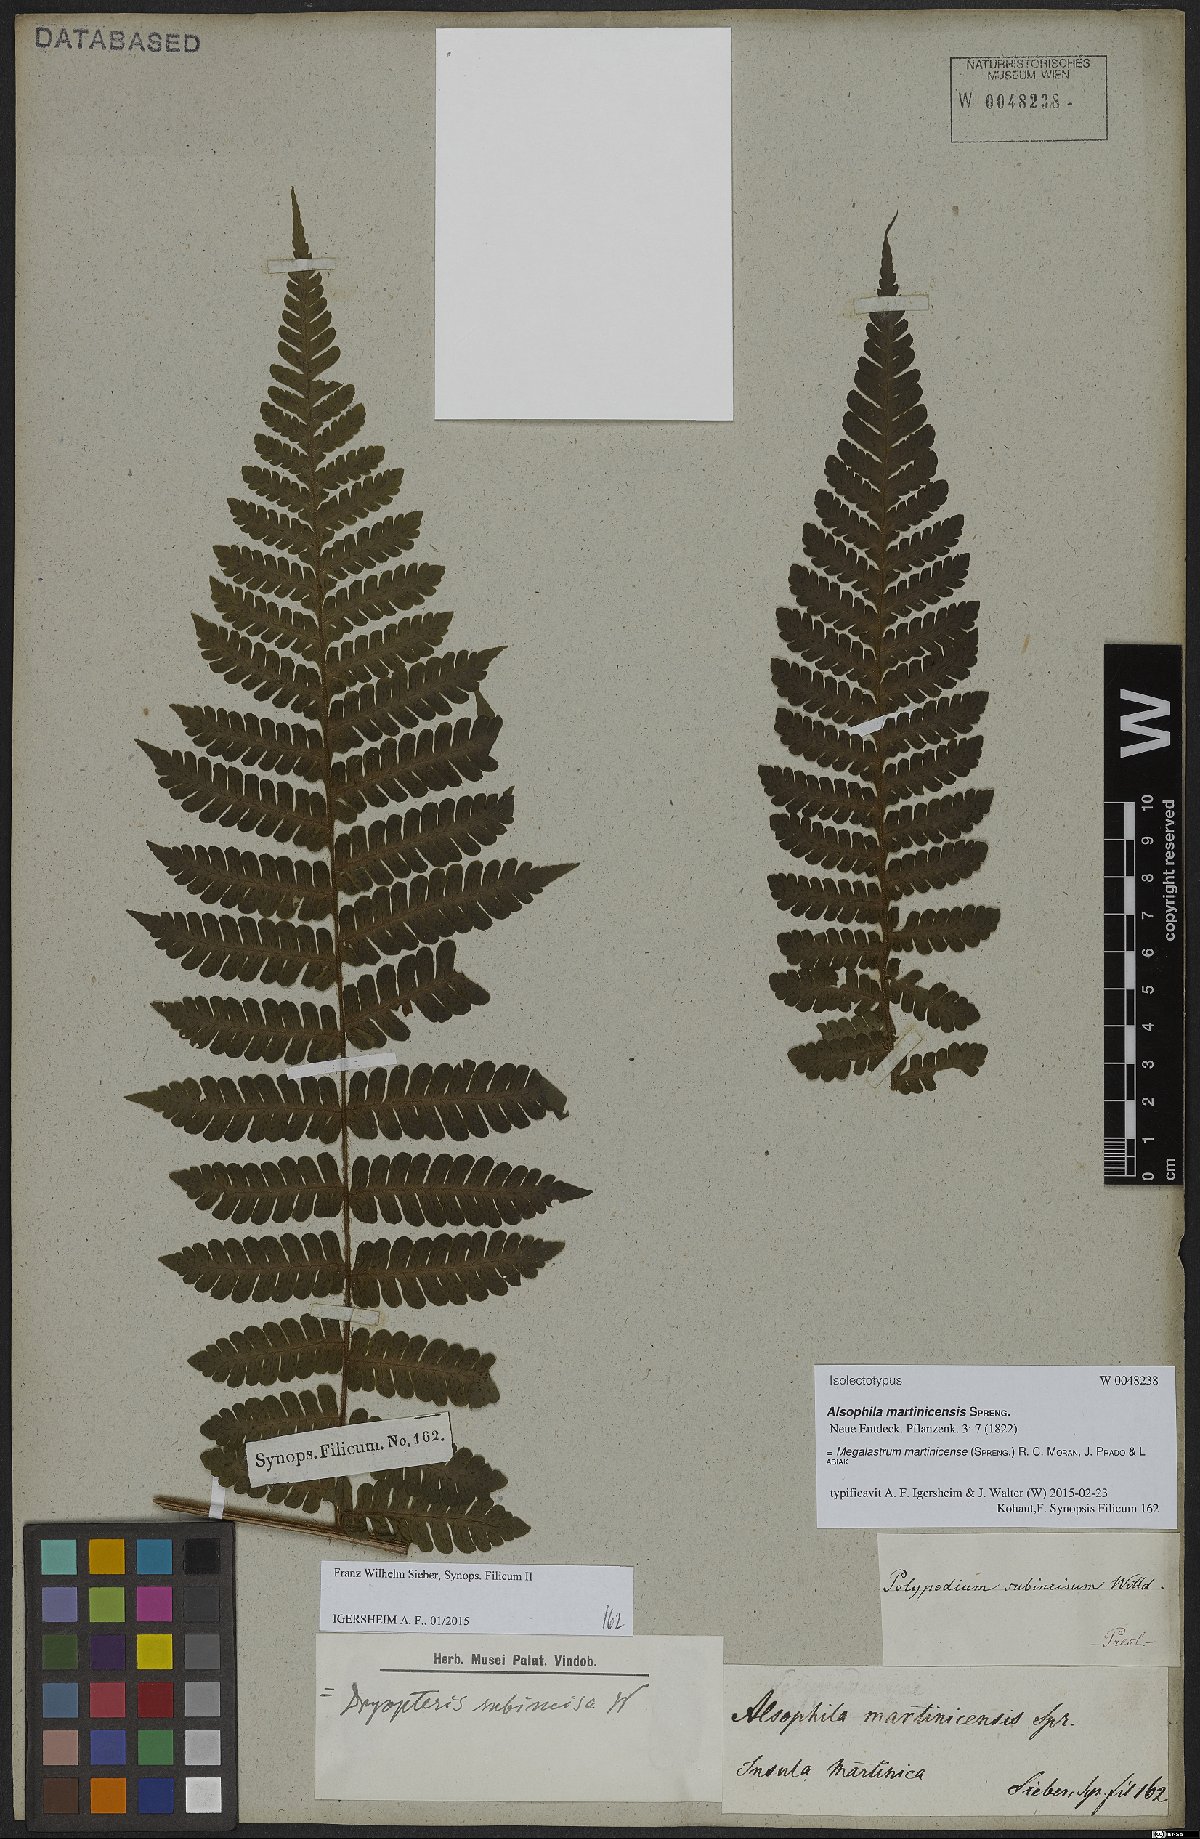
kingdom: Plantae
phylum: Tracheophyta
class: Polypodiopsida
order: Polypodiales
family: Dryopteridaceae
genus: Megalastrum
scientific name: Megalastrum martinicense
